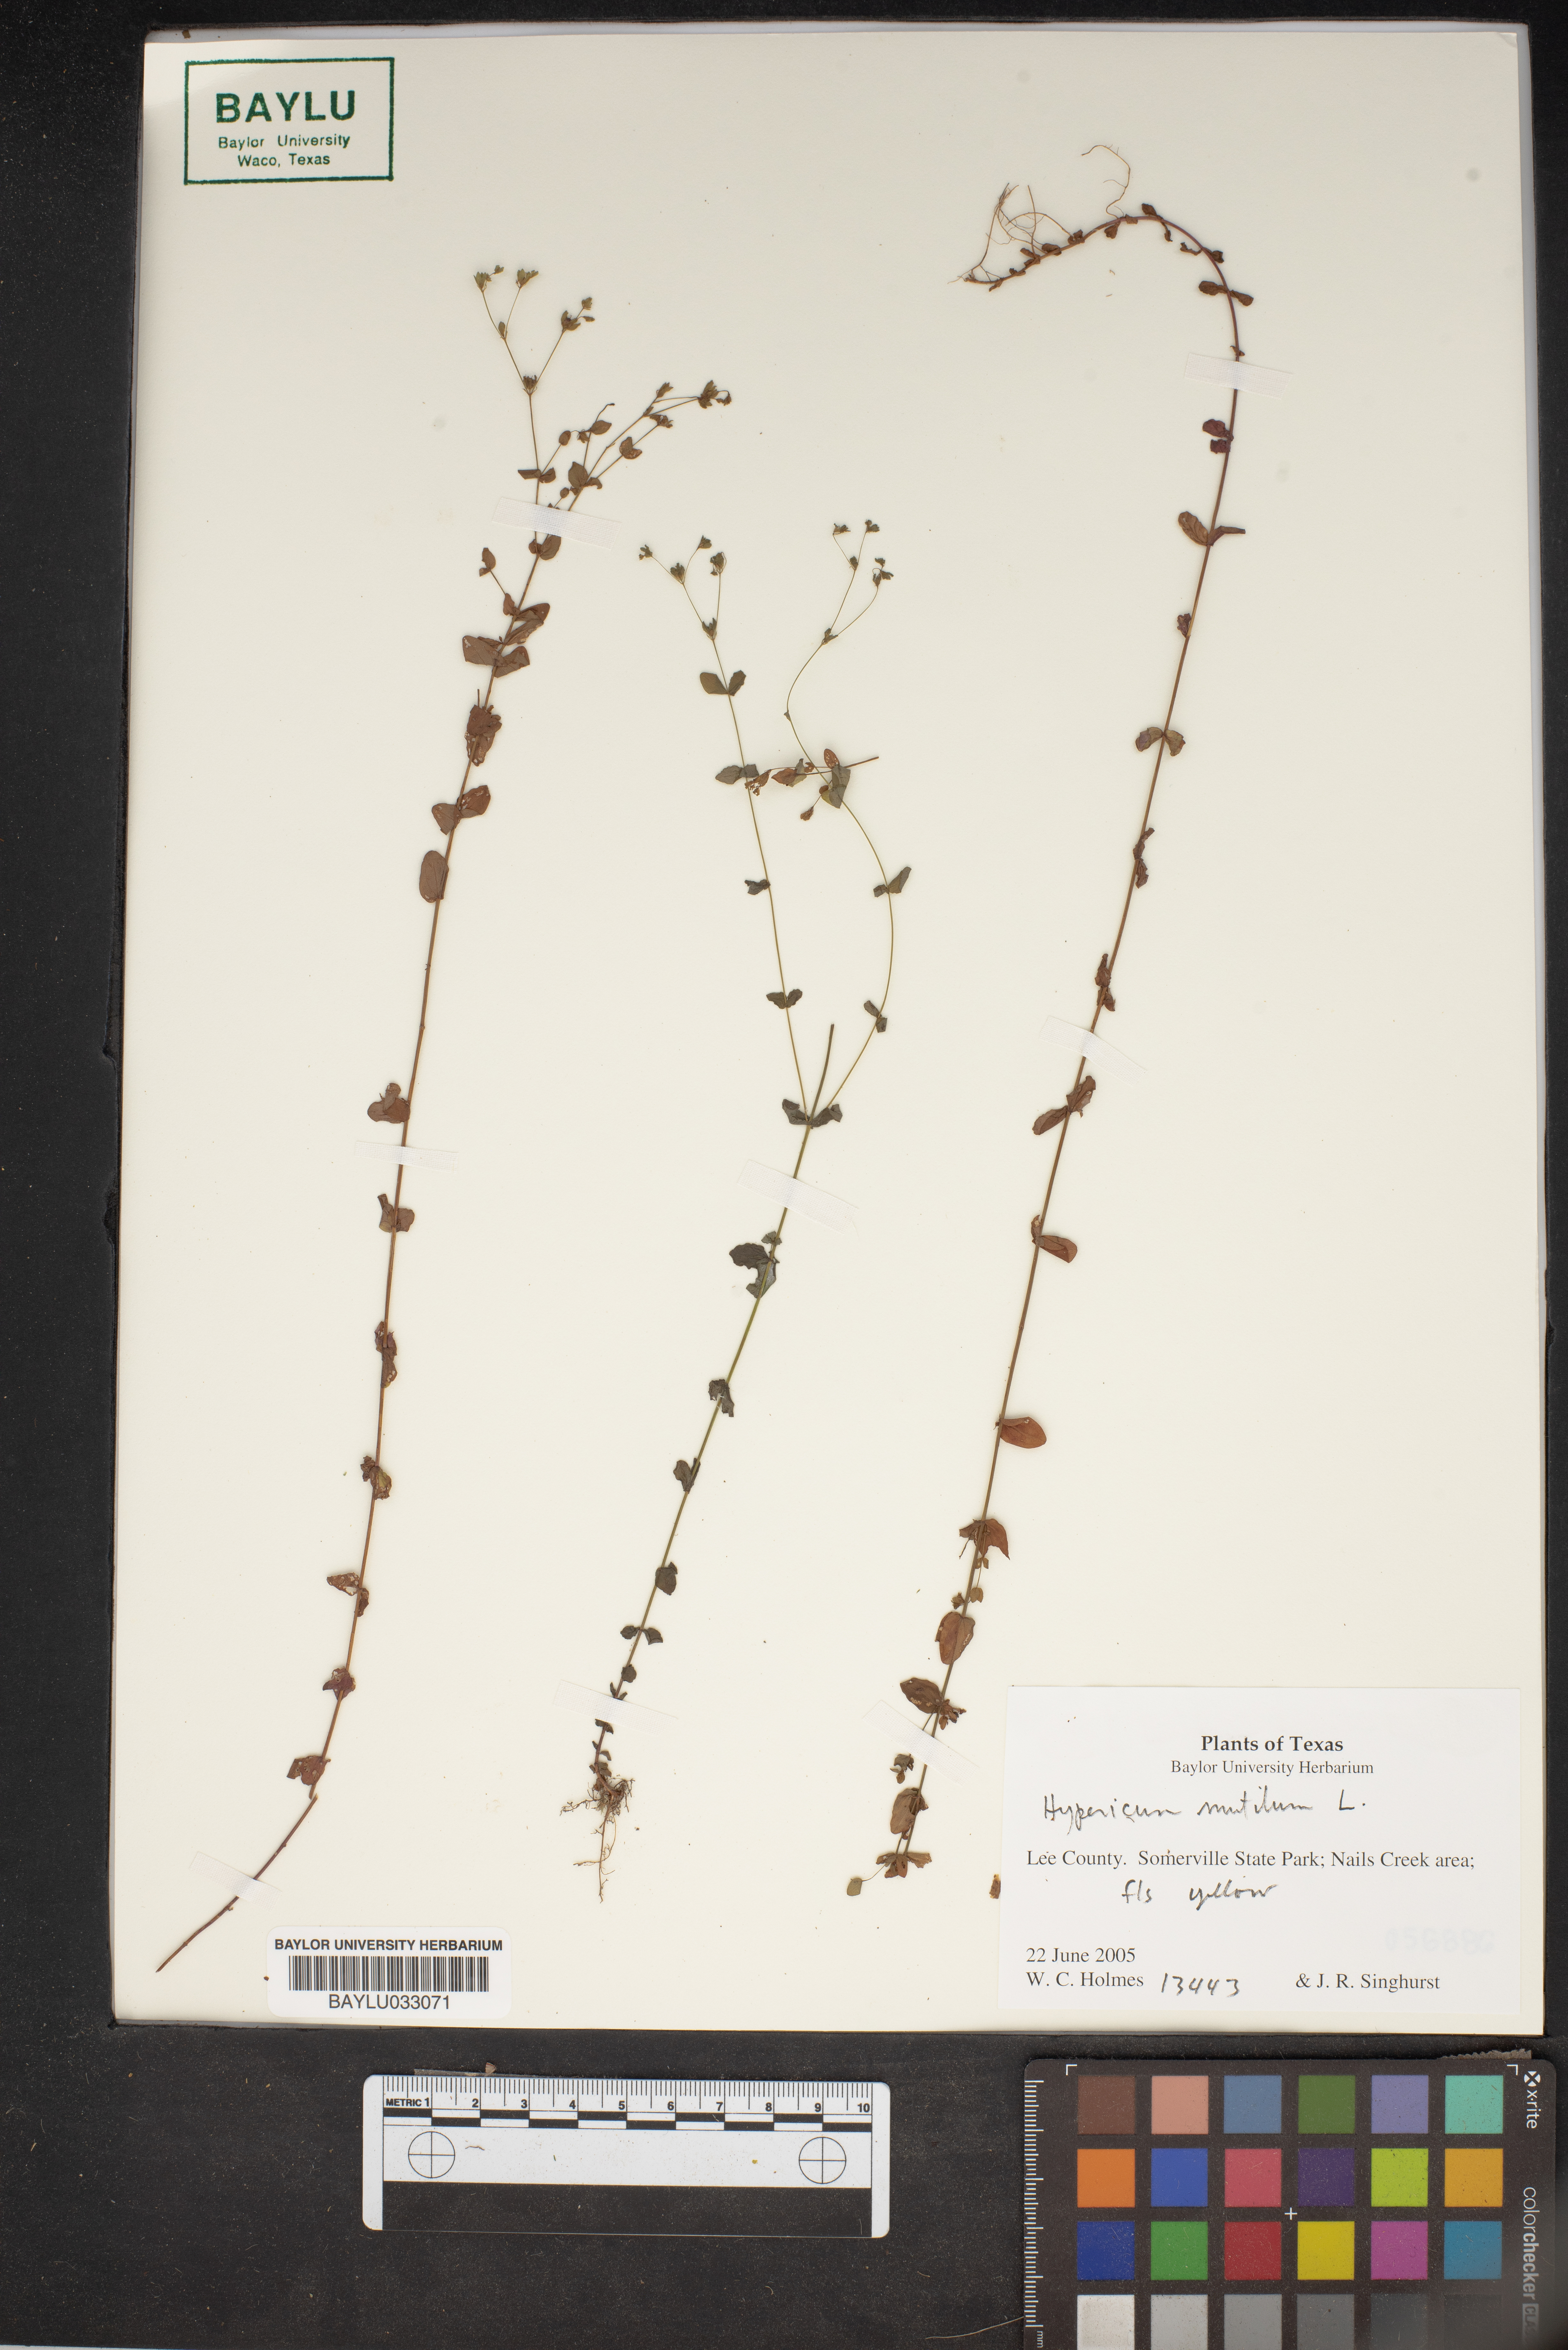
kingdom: Plantae
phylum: Tracheophyta
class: Magnoliopsida
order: Malpighiales
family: Hypericaceae
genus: Hypericum
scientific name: Hypericum mutilum
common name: Dwarf st. john's-wort
